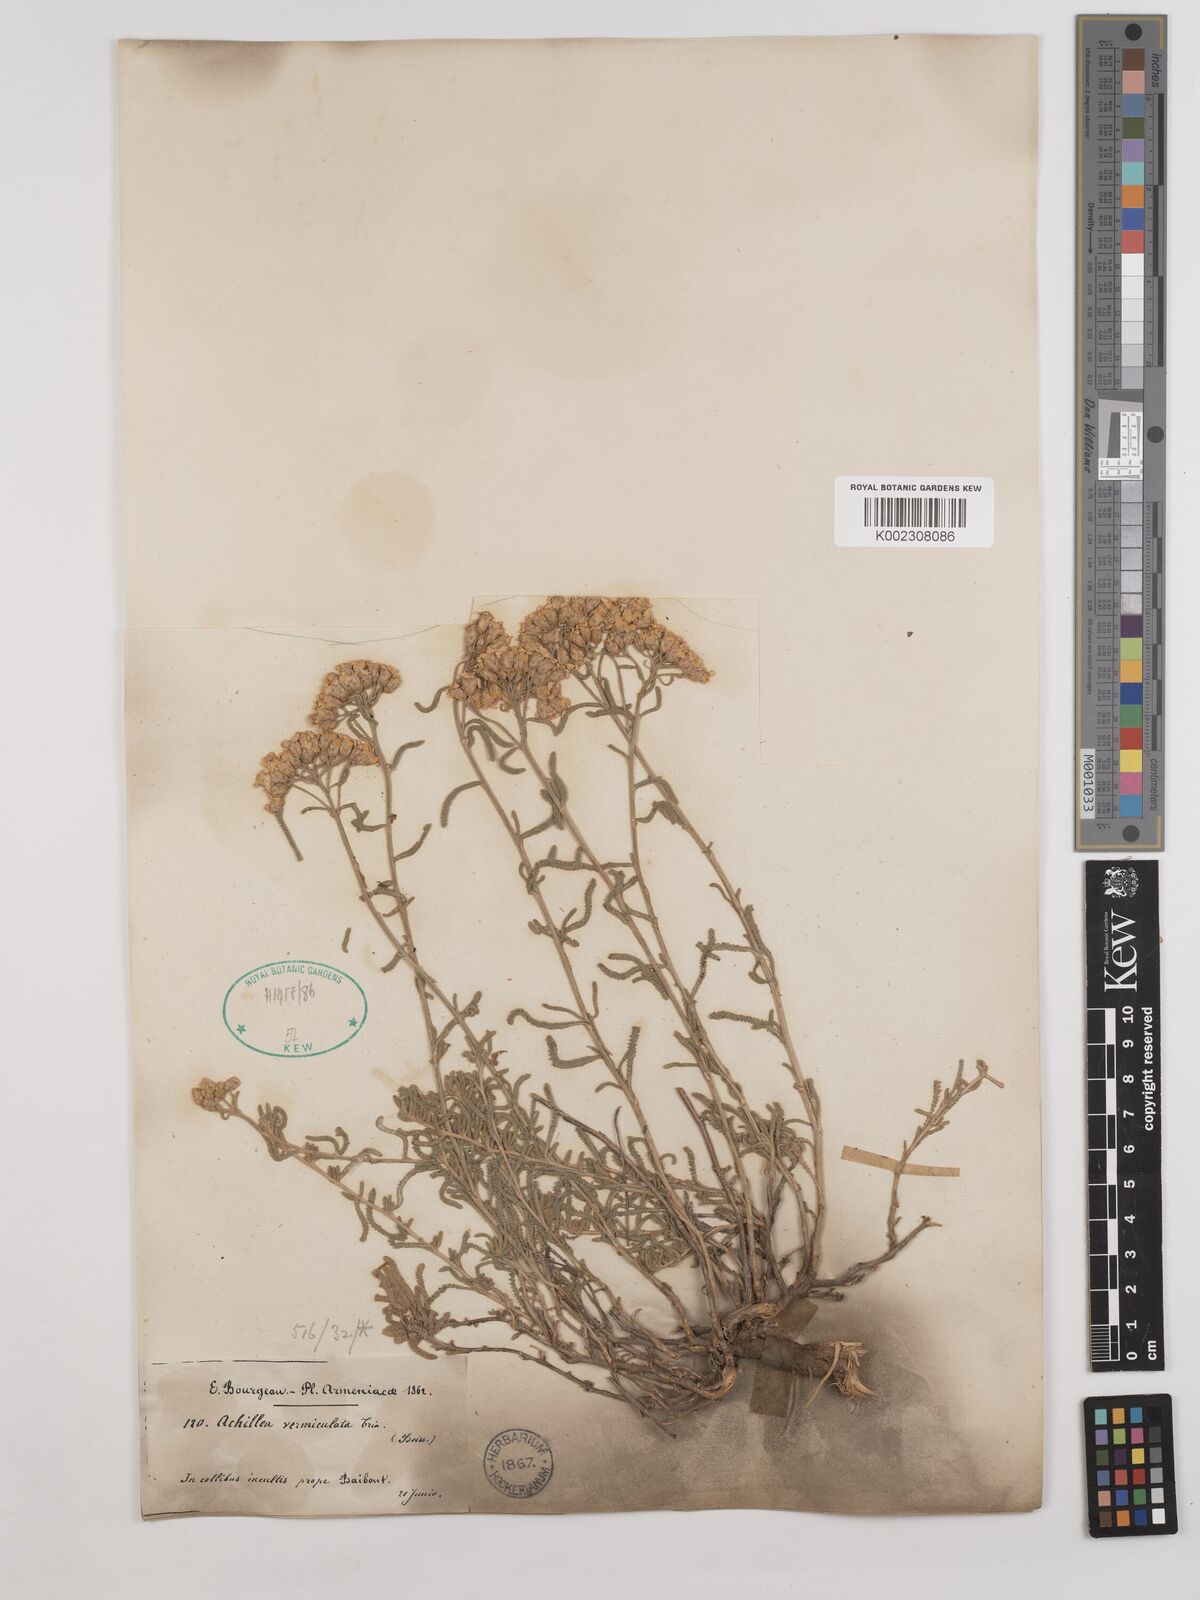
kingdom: Plantae
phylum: Tracheophyta
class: Magnoliopsida
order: Asterales
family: Asteraceae
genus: Achillea
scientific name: Achillea vermicularis
